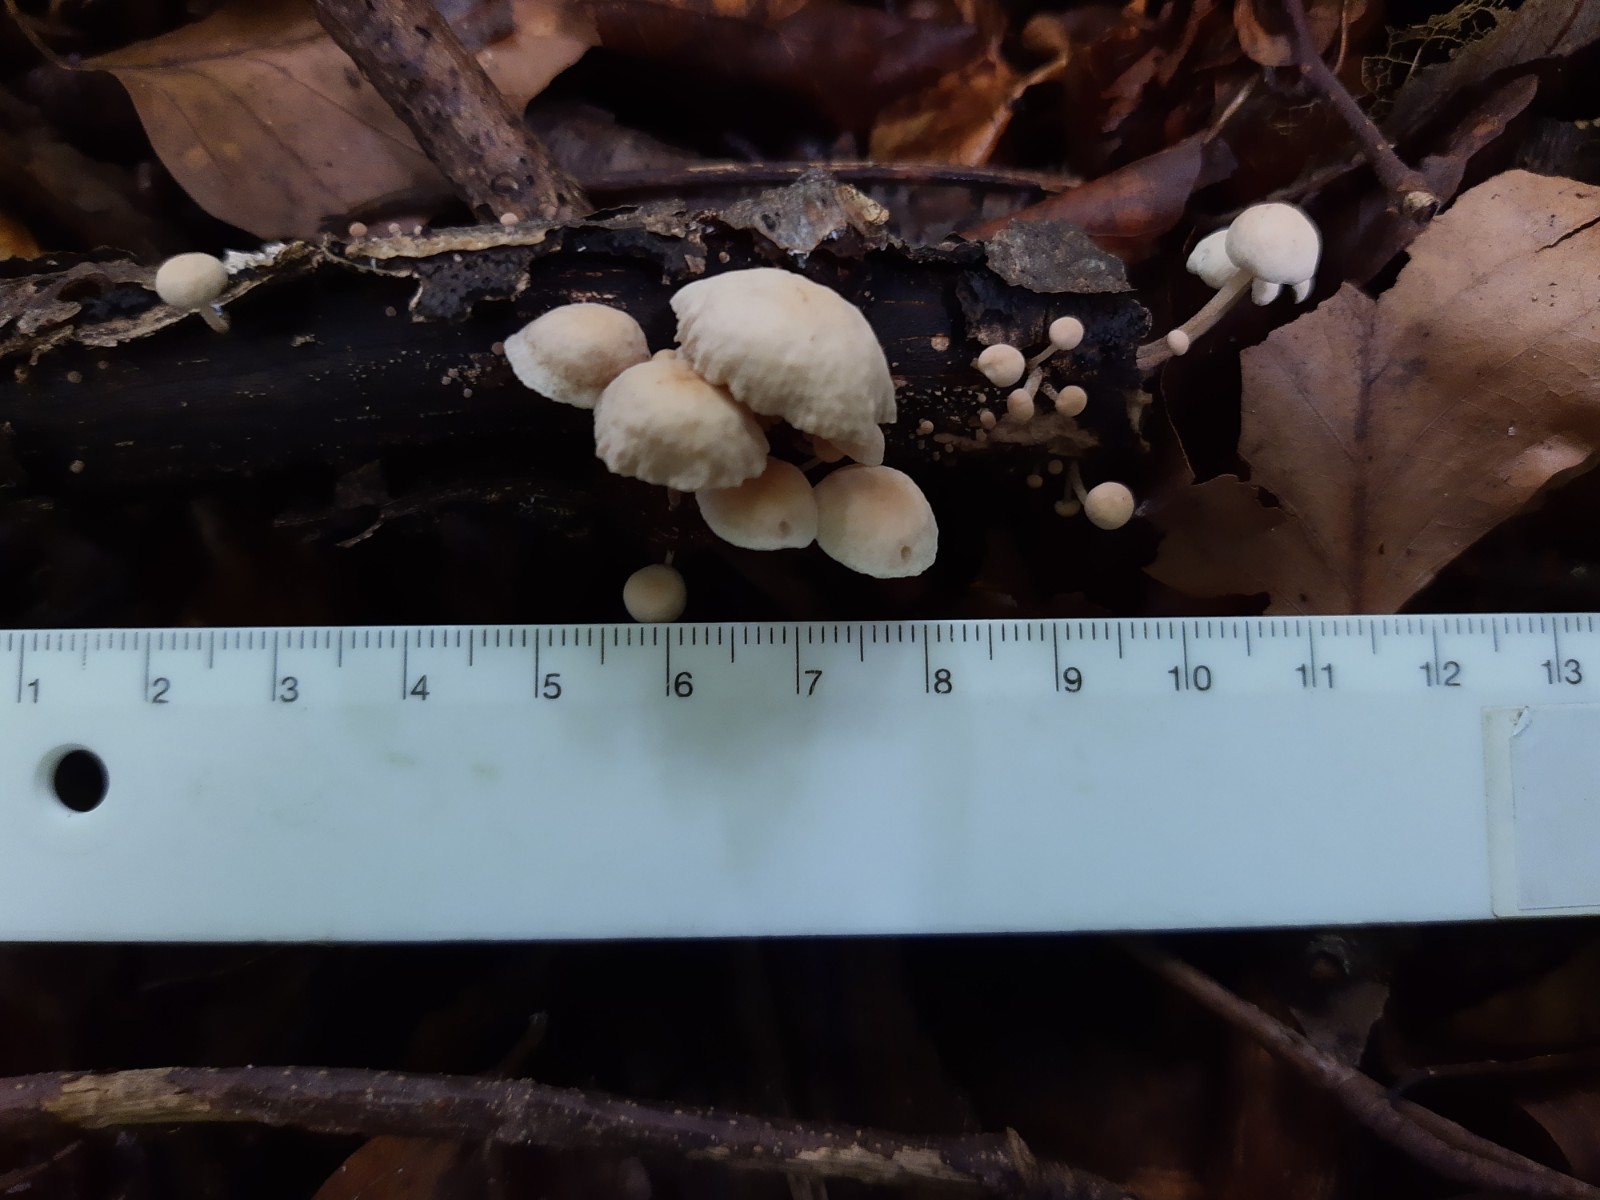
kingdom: Fungi
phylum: Basidiomycota
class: Agaricomycetes
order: Agaricales
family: Omphalotaceae
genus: Collybiopsis
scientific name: Collybiopsis ramealis
